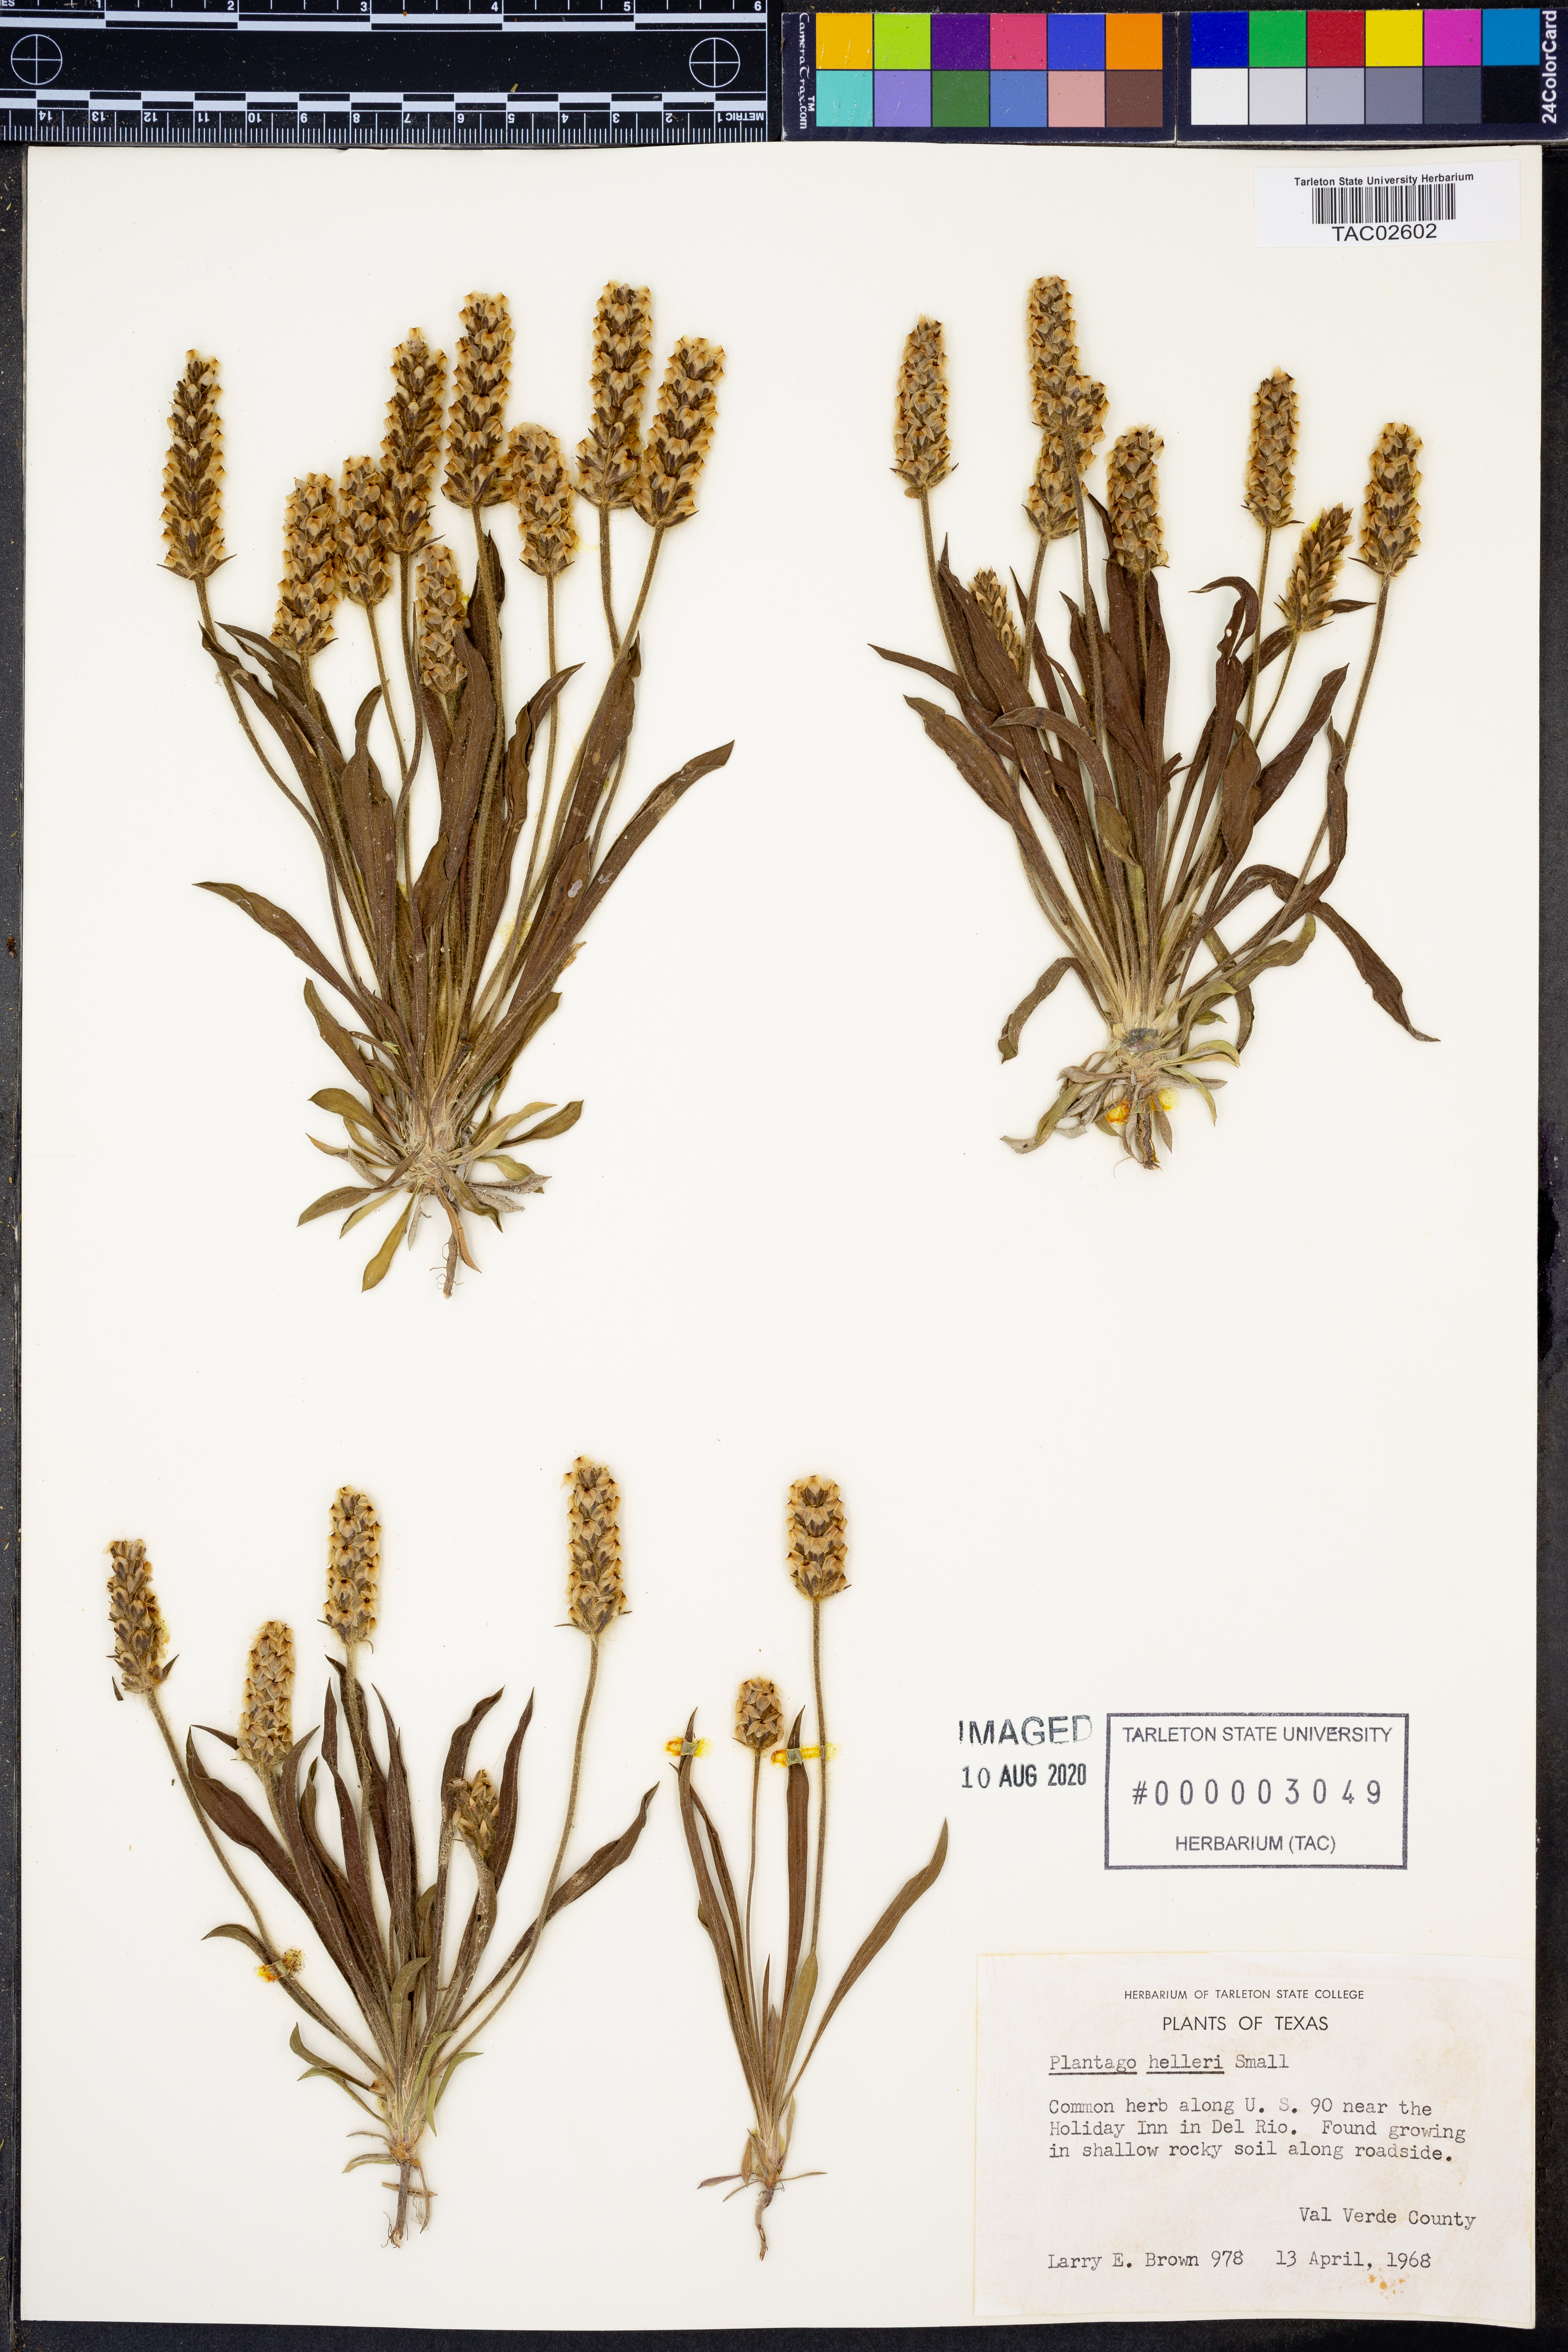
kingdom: Plantae
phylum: Tracheophyta
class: Magnoliopsida
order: Lamiales
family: Plantaginaceae
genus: Plantago
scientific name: Plantago helleri
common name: Heller's plantain
